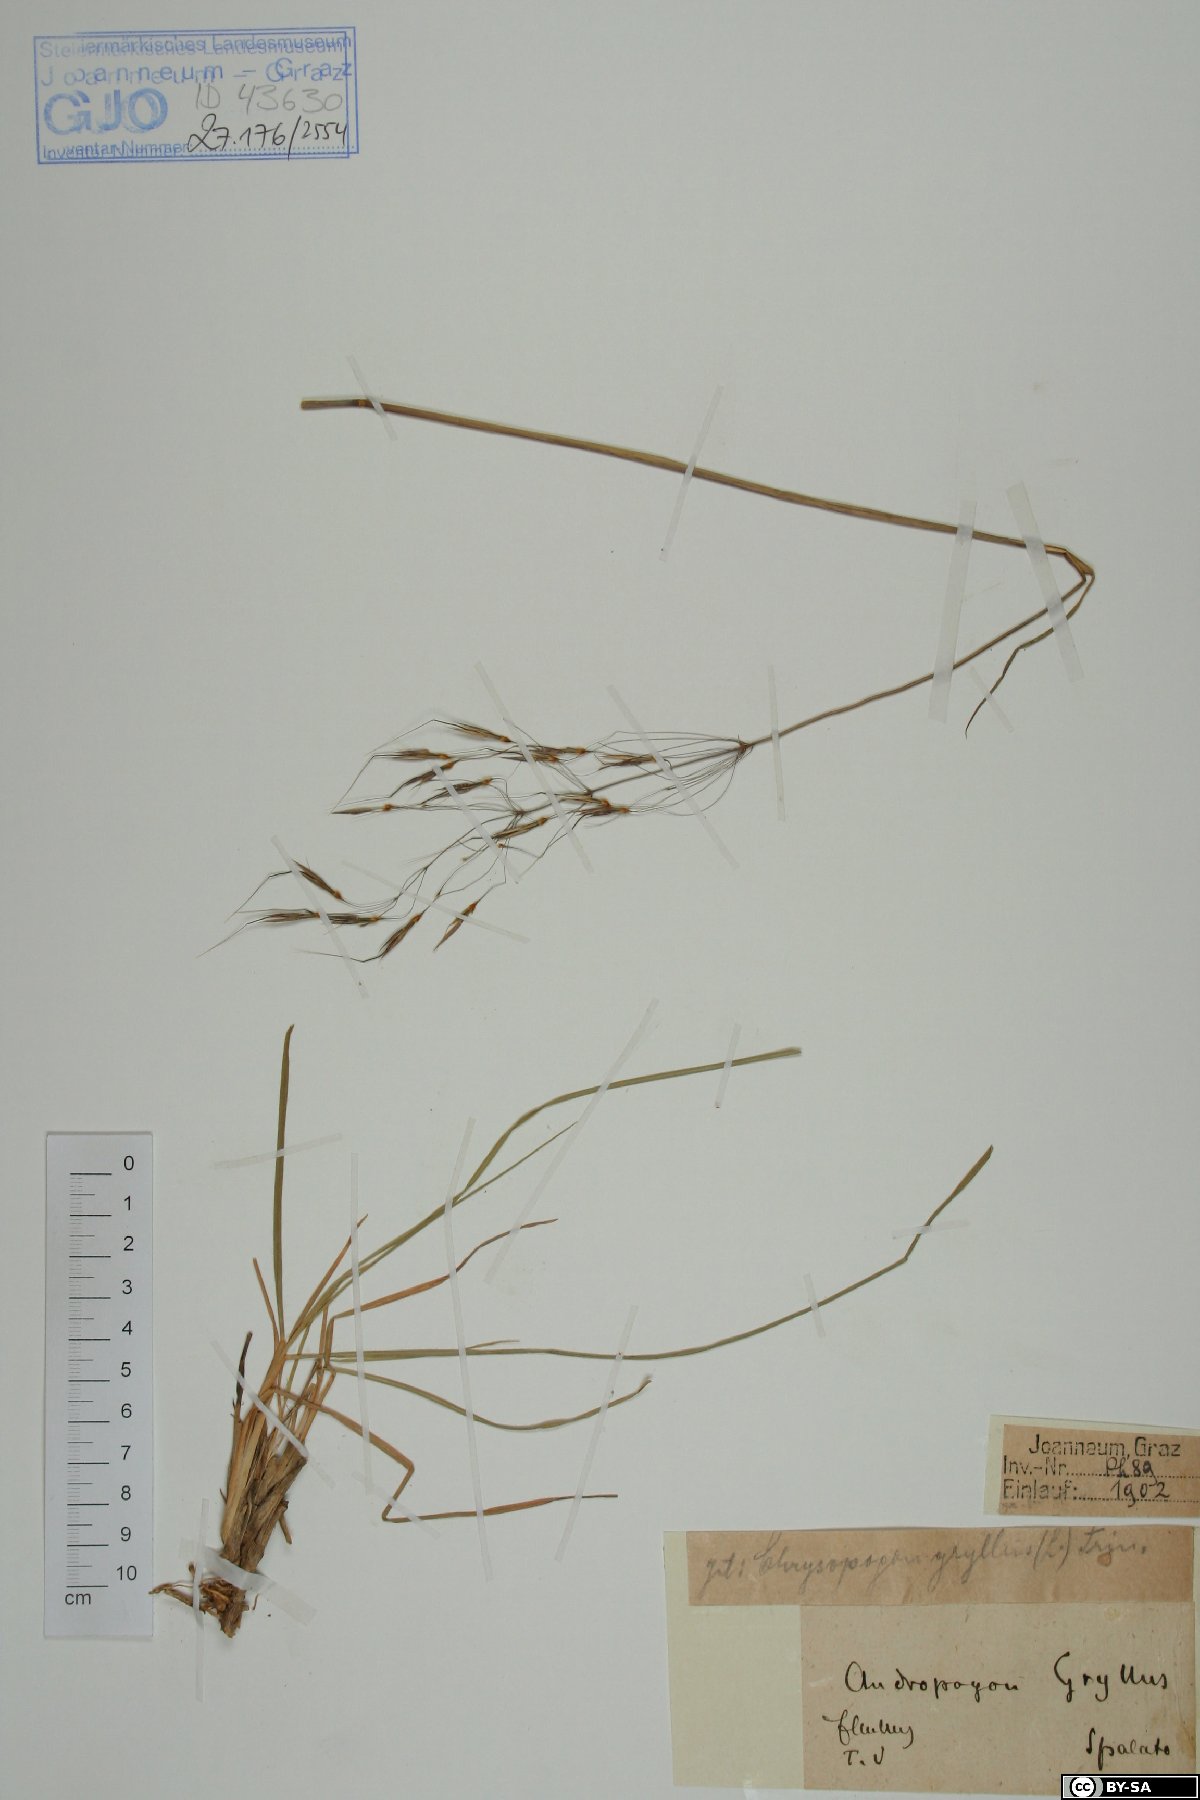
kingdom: Plantae
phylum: Tracheophyta
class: Liliopsida
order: Poales
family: Poaceae
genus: Chrysopogon
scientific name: Chrysopogon gryllus
